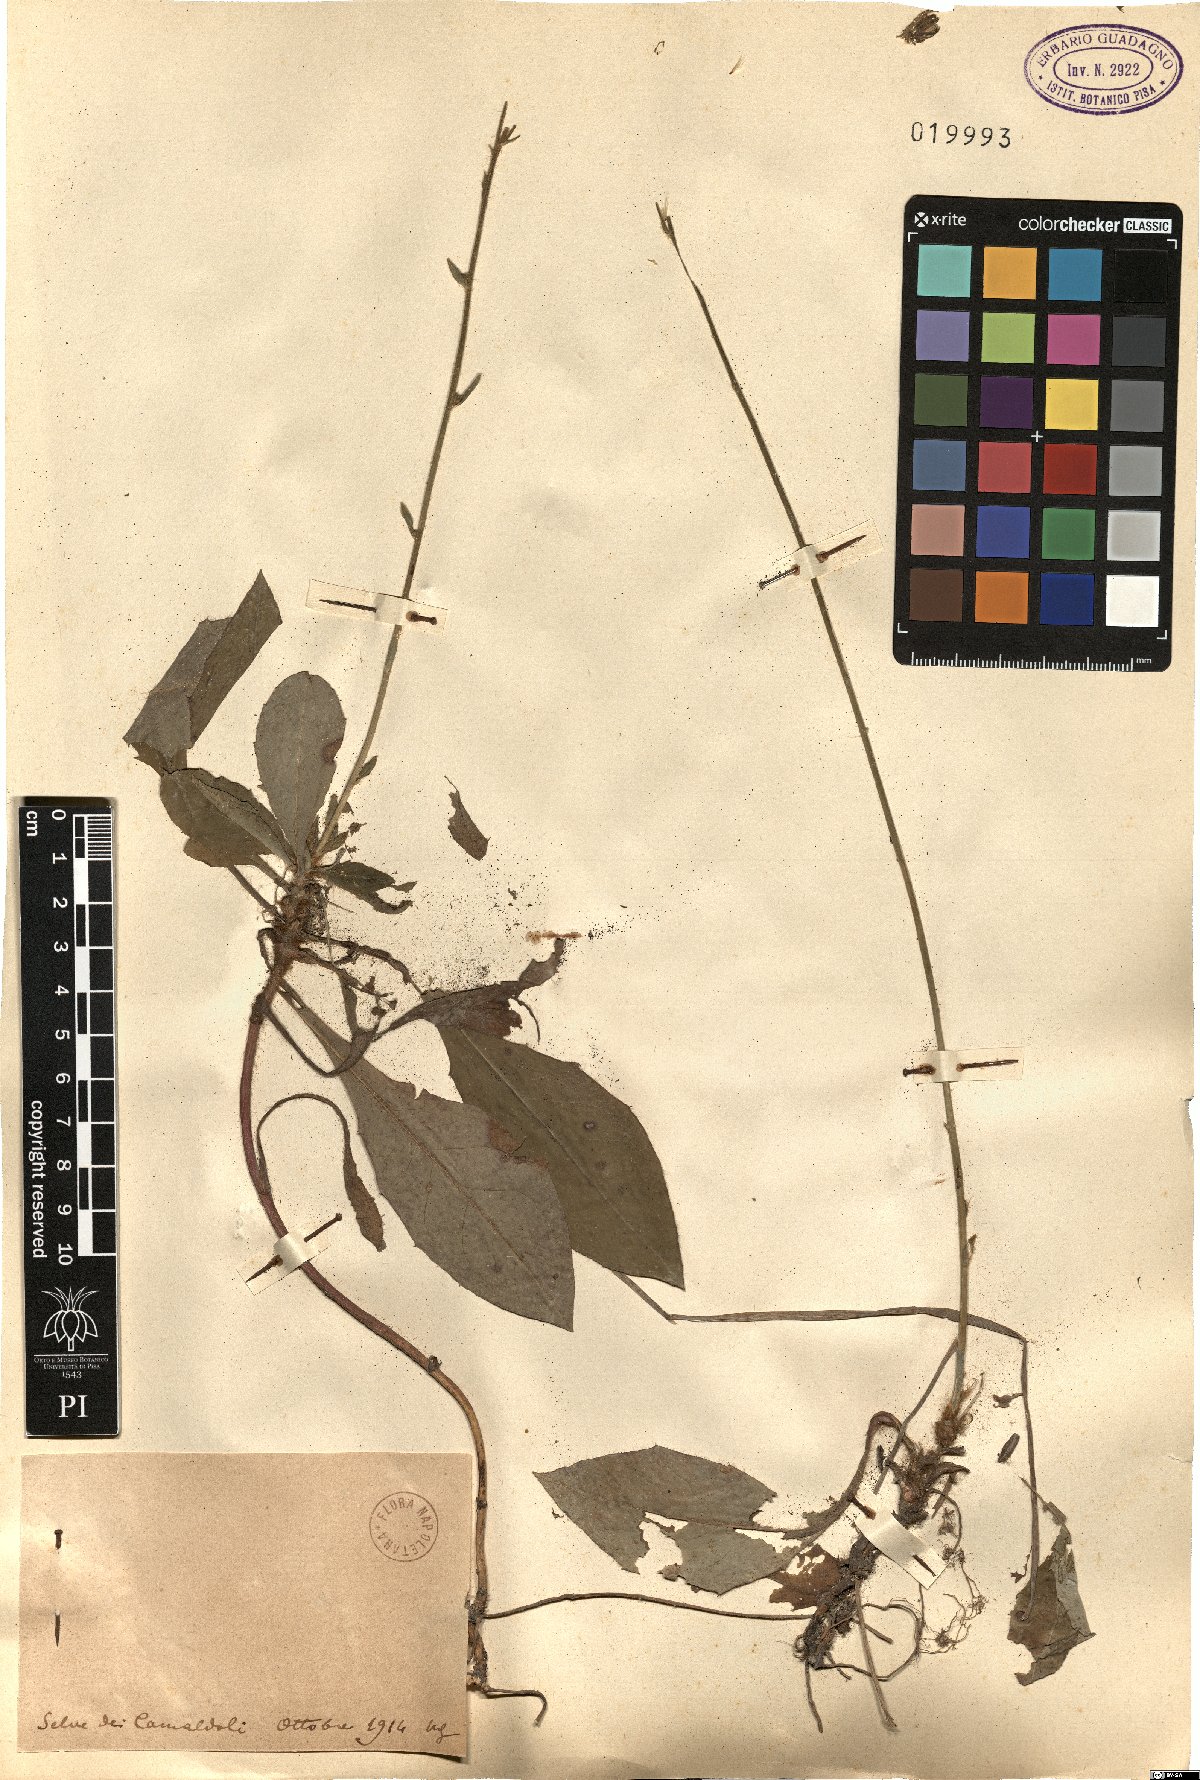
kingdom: Plantae
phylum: Tracheophyta
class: Magnoliopsida
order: Asterales
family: Asteraceae
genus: Hieracium
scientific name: Hieracium
